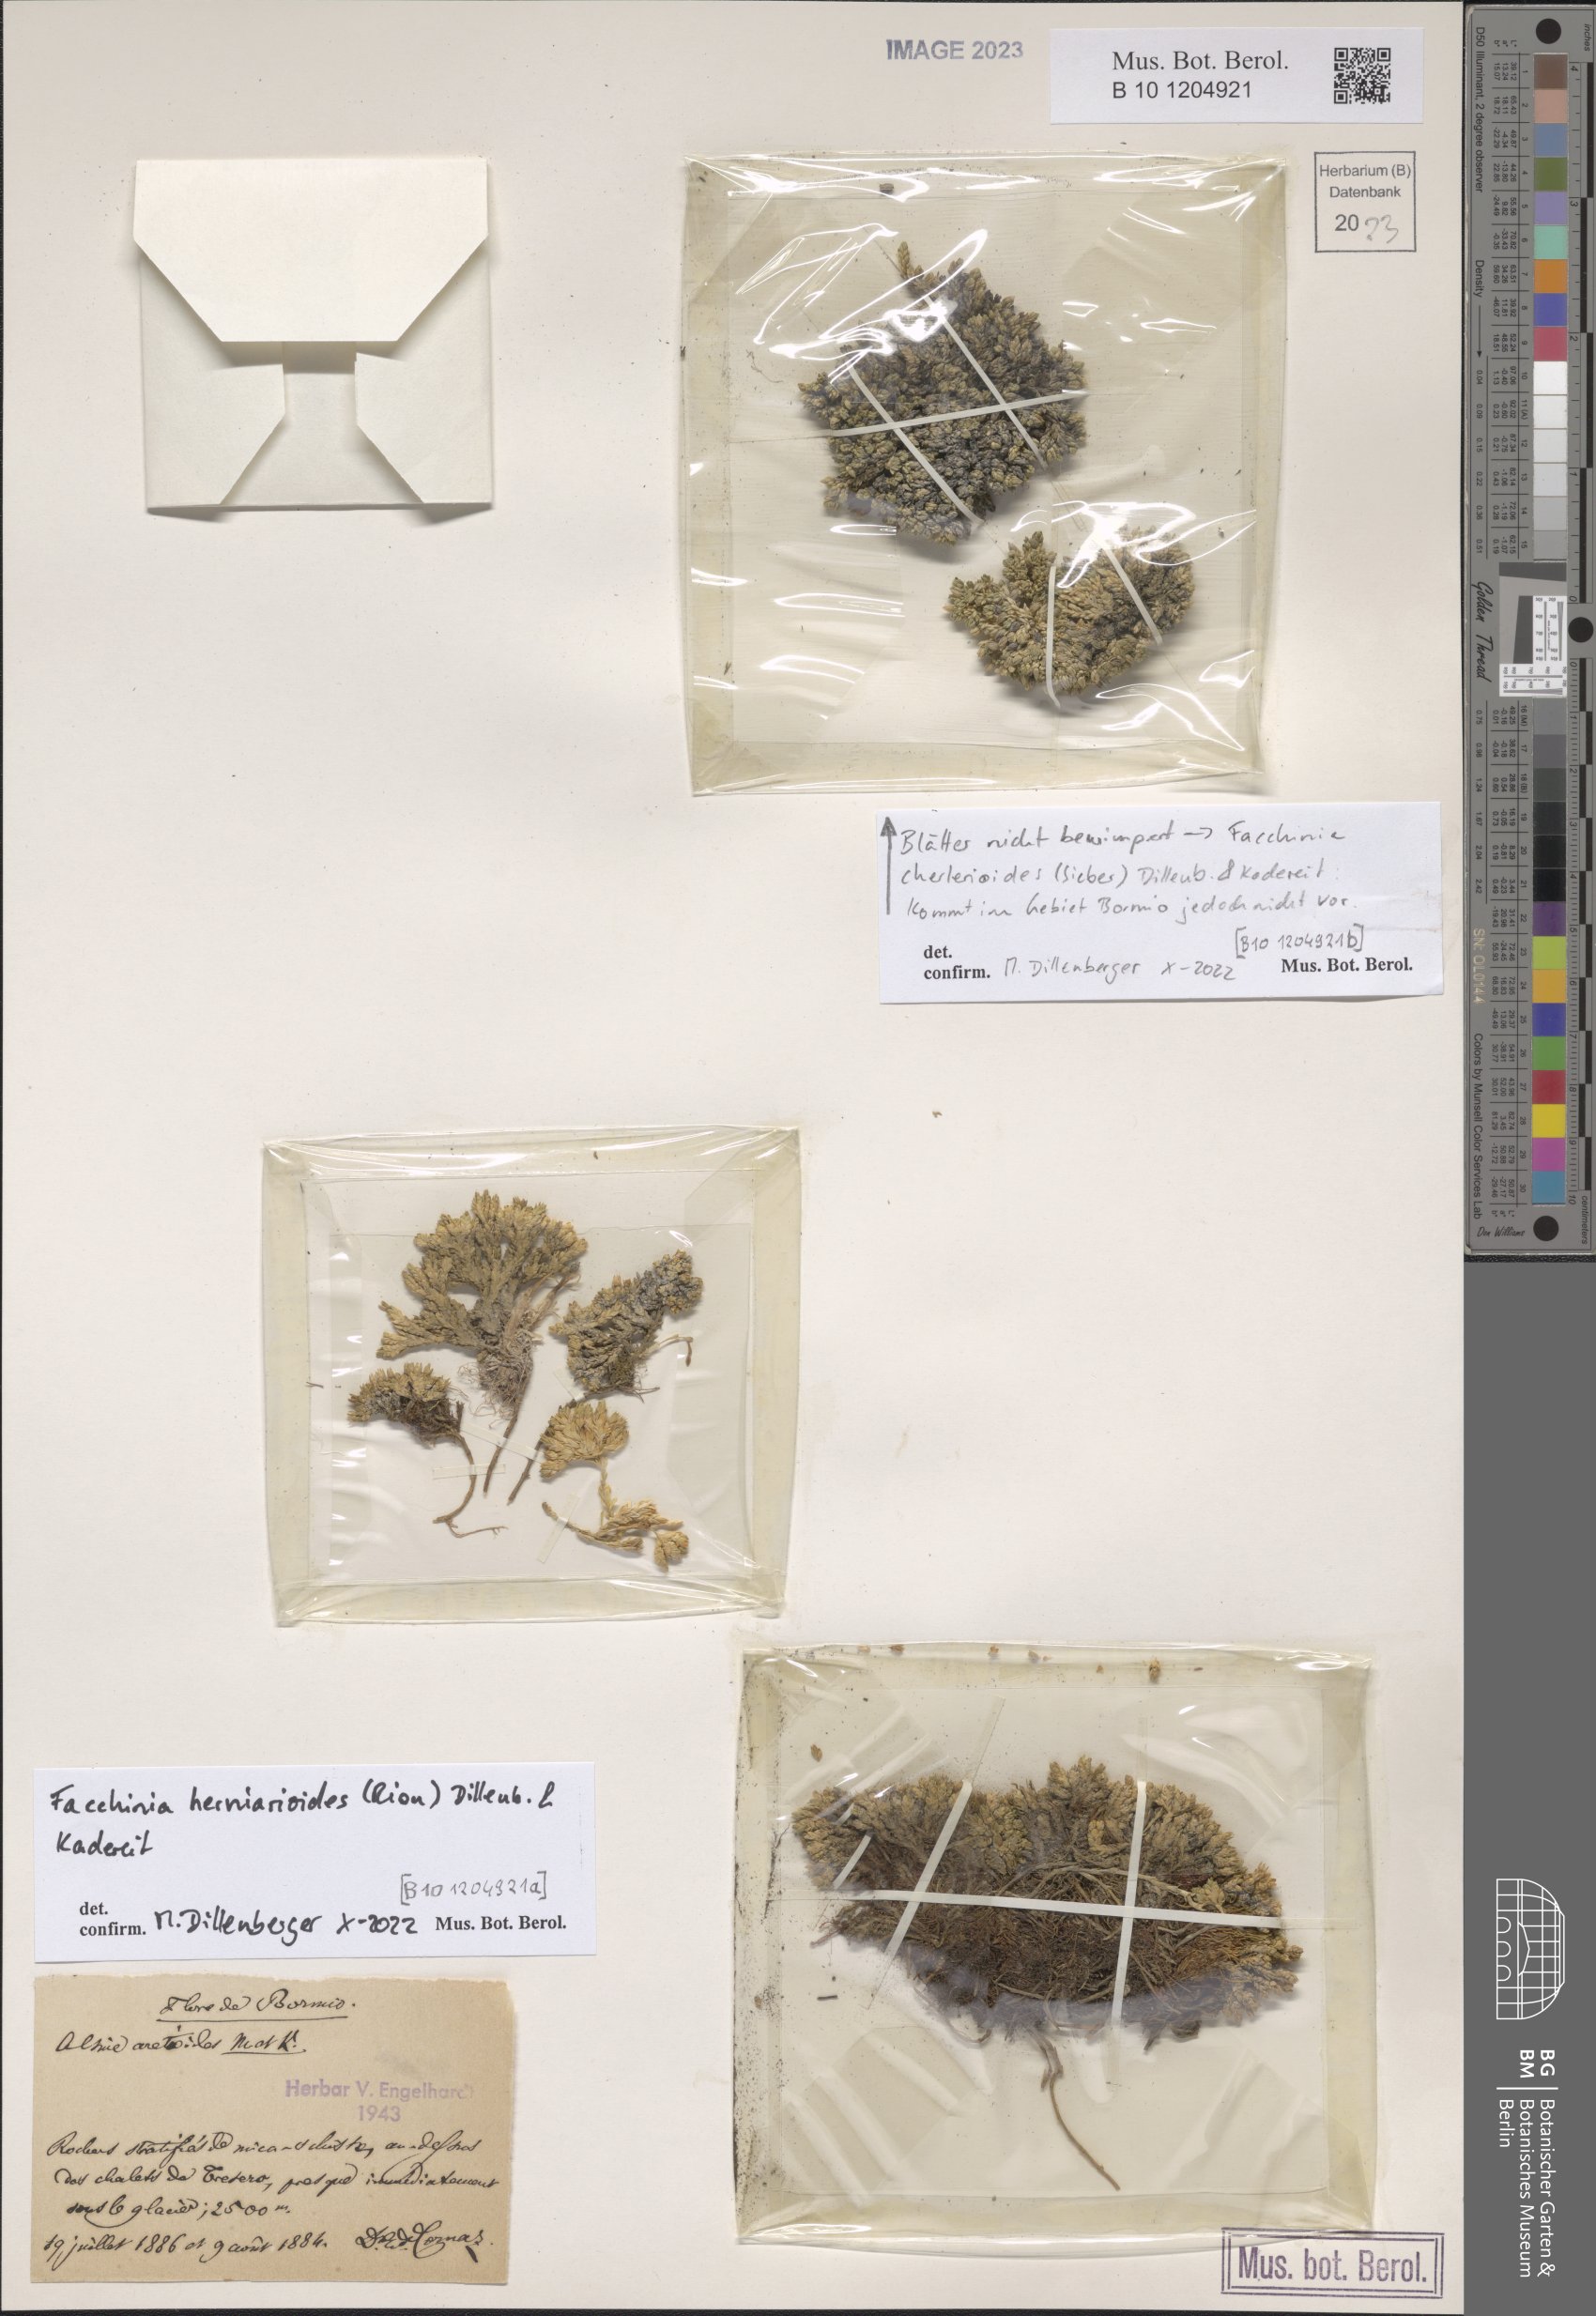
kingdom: Plantae
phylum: Tracheophyta
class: Magnoliopsida
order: Caryophyllales
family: Caryophyllaceae
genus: Facchinia
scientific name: Facchinia herniarioides
